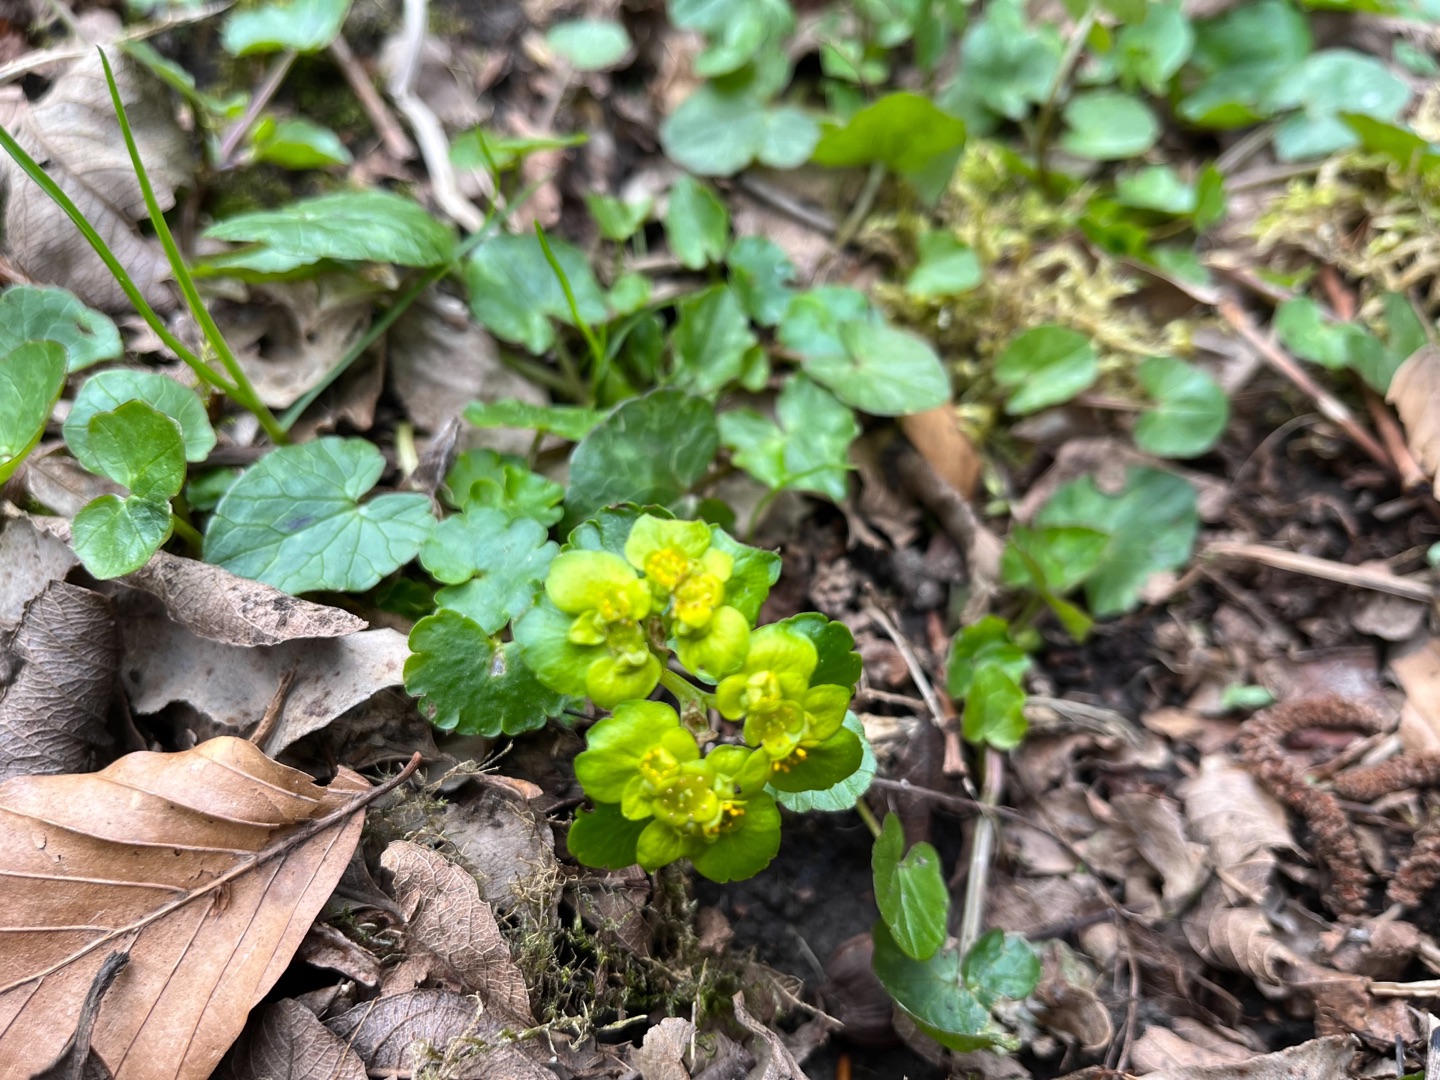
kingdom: Plantae
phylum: Tracheophyta
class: Magnoliopsida
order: Saxifragales
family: Saxifragaceae
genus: Chrysosplenium
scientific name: Chrysosplenium alternifolium
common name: Almindelig milturt
